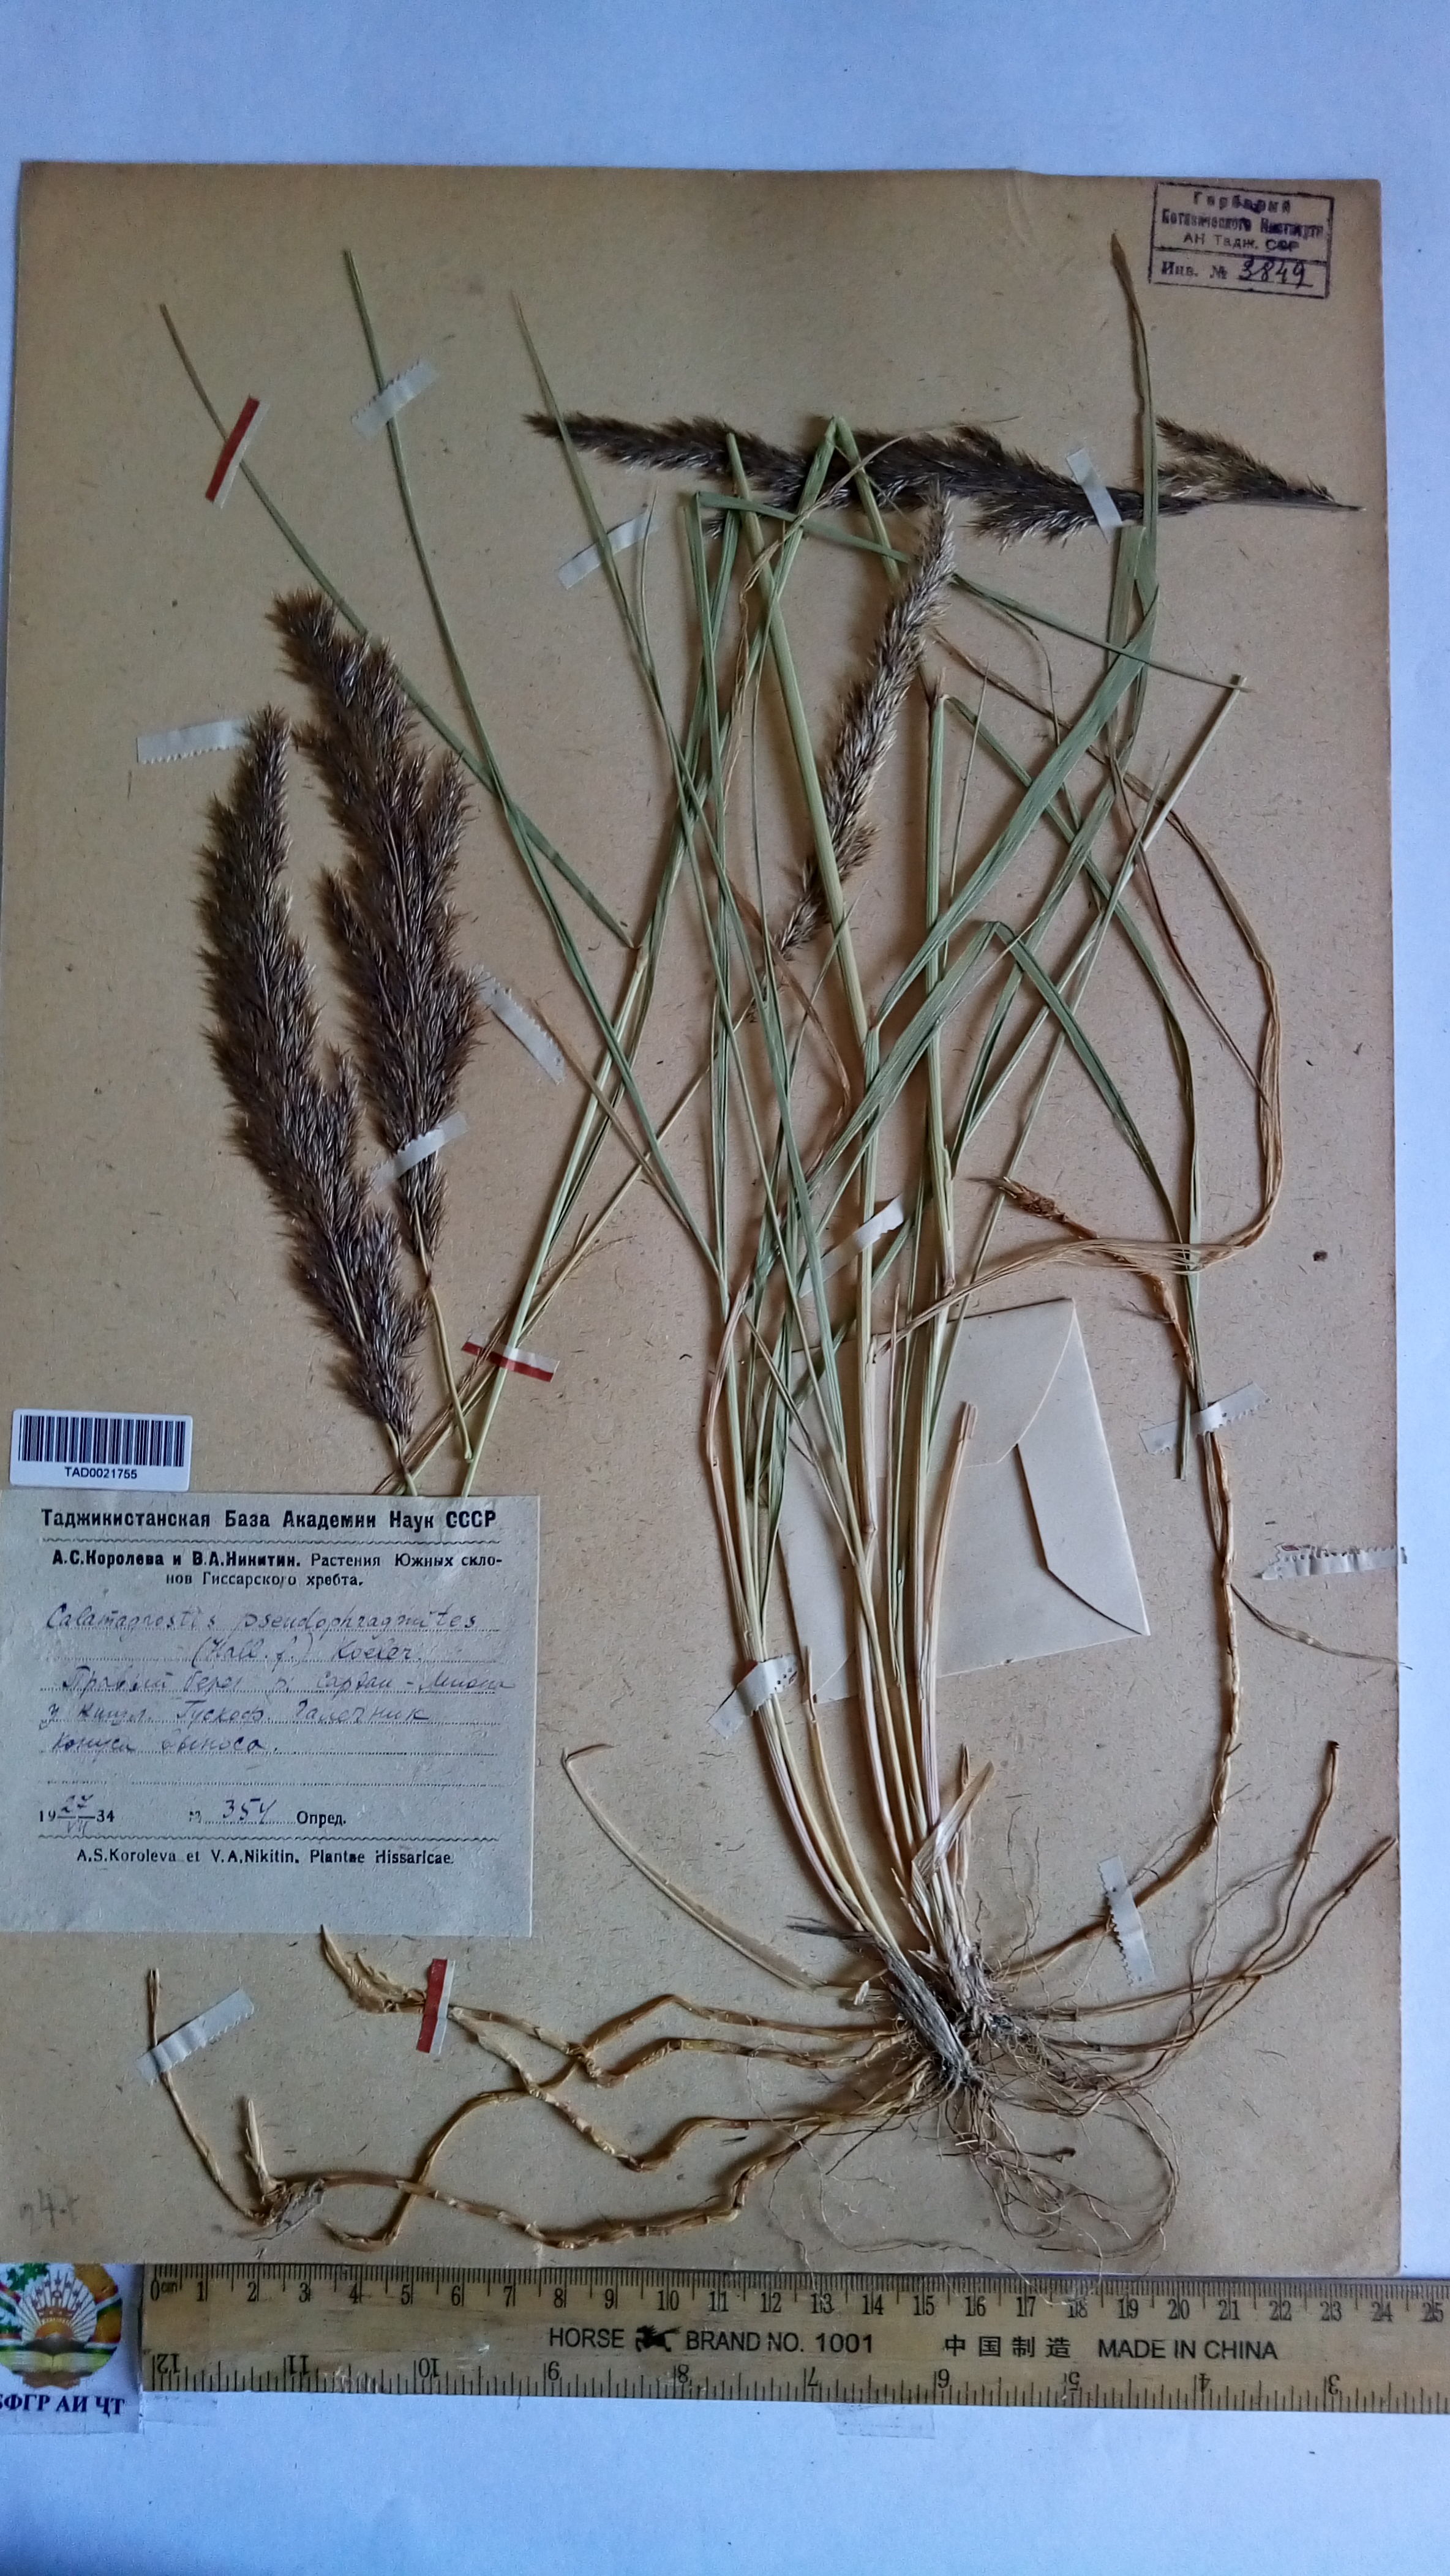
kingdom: Plantae
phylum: Tracheophyta
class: Liliopsida
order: Poales
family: Poaceae
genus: Calamagrostis
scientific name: Calamagrostis pseudophragmites
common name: Coastal small-reed
